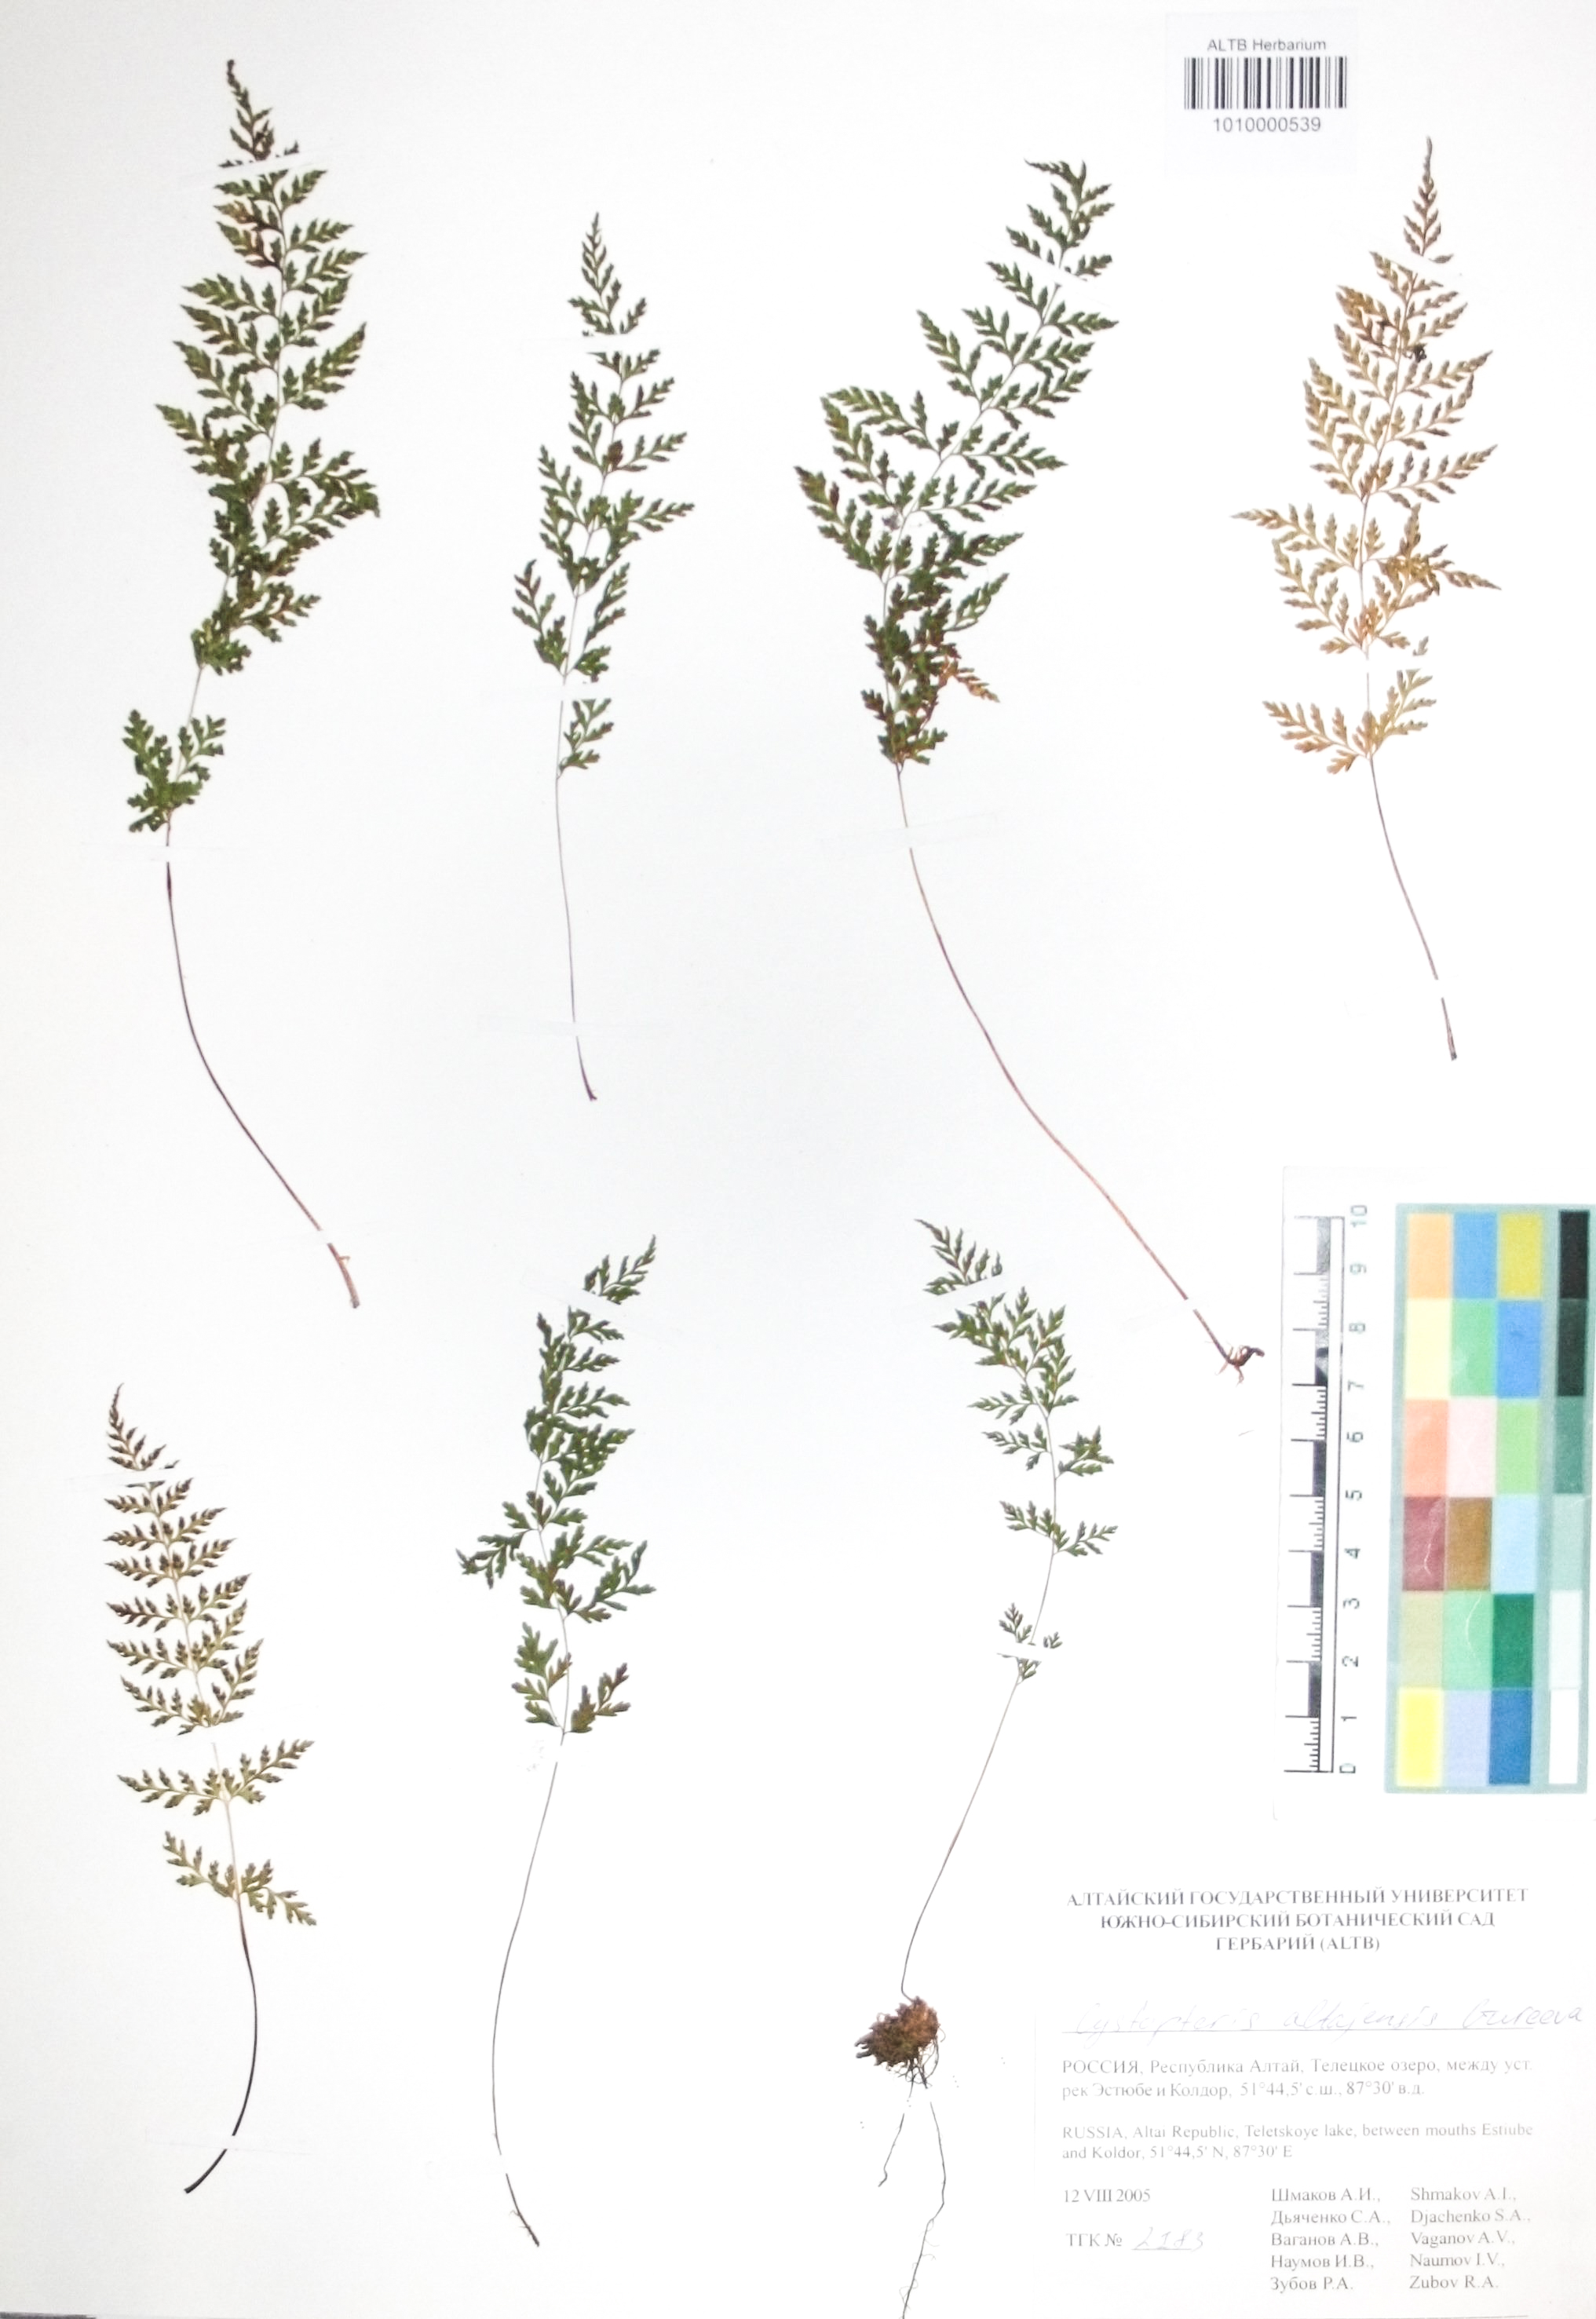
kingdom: Plantae
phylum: Tracheophyta
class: Polypodiopsida
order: Polypodiales
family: Cystopteridaceae
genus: Cystopteris
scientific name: Cystopteris diaphana
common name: Greenish bladder-fern
